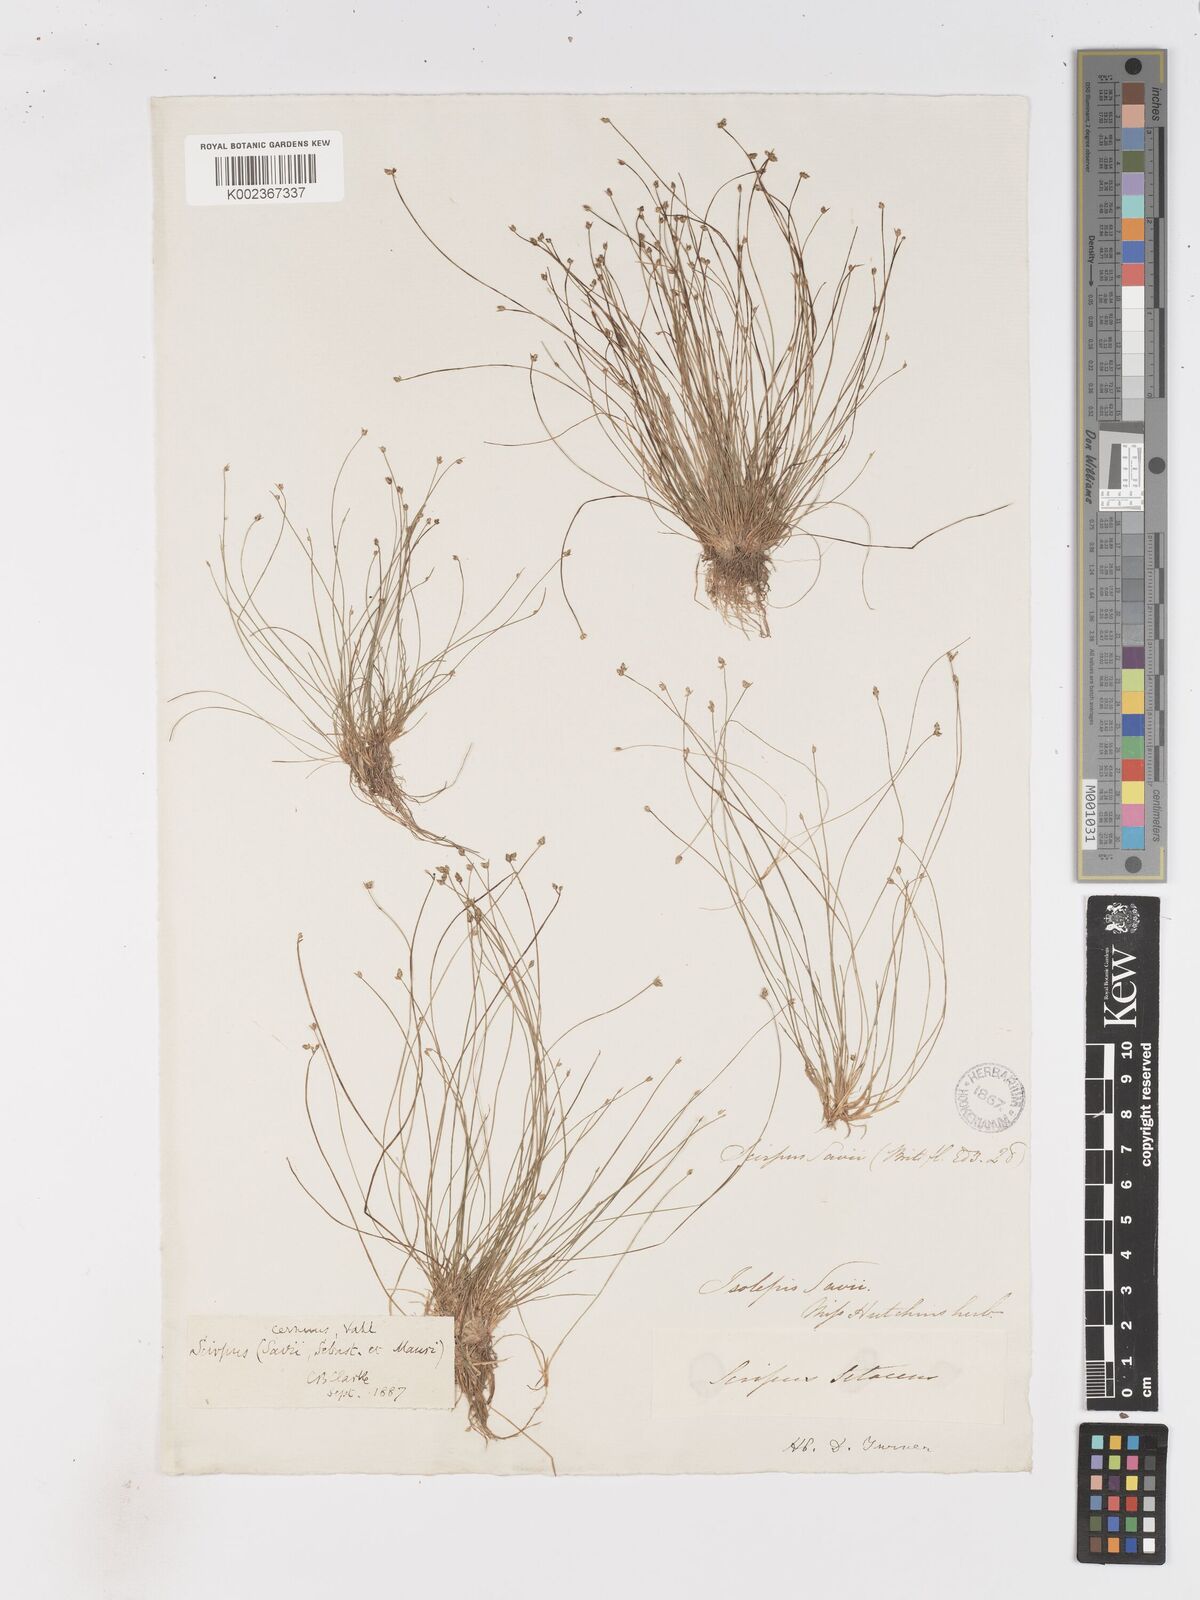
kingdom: Plantae
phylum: Tracheophyta
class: Liliopsida
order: Poales
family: Cyperaceae
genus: Isolepis
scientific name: Isolepis cernua
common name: Slender club-rush
